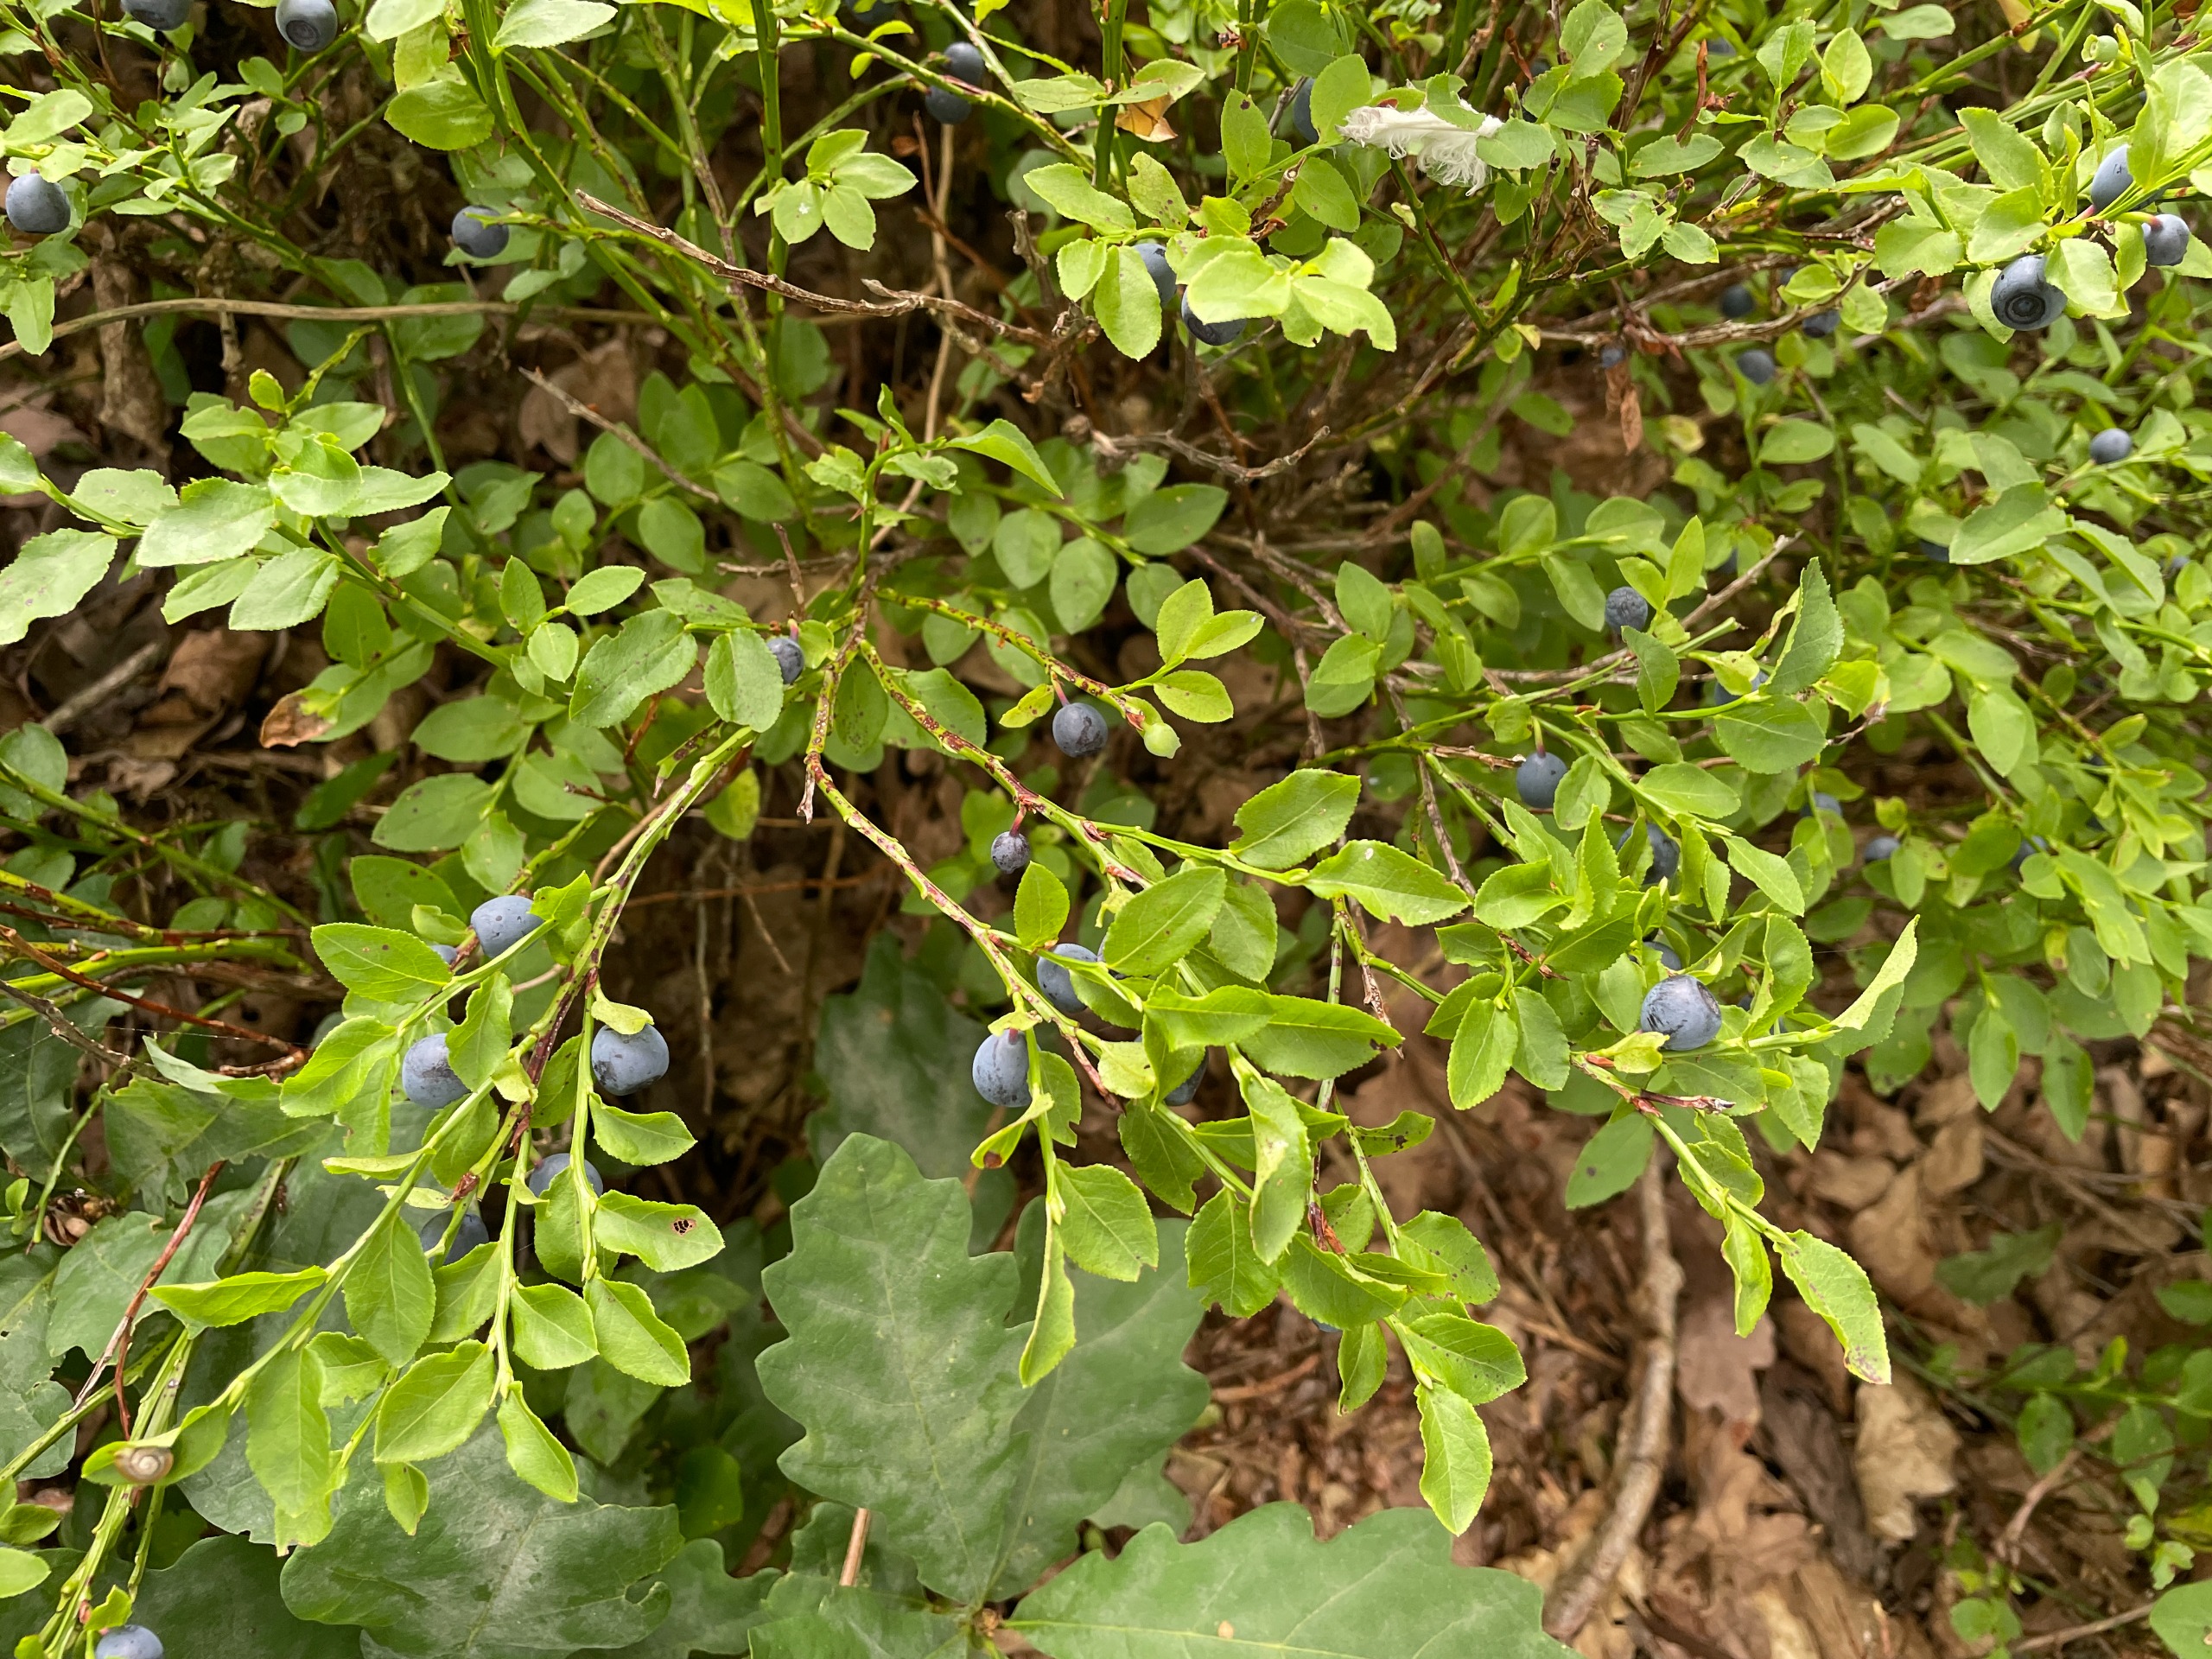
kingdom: Plantae
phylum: Tracheophyta
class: Magnoliopsida
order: Ericales
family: Ericaceae
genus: Vaccinium
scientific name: Vaccinium myrtillus
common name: Blåbær
